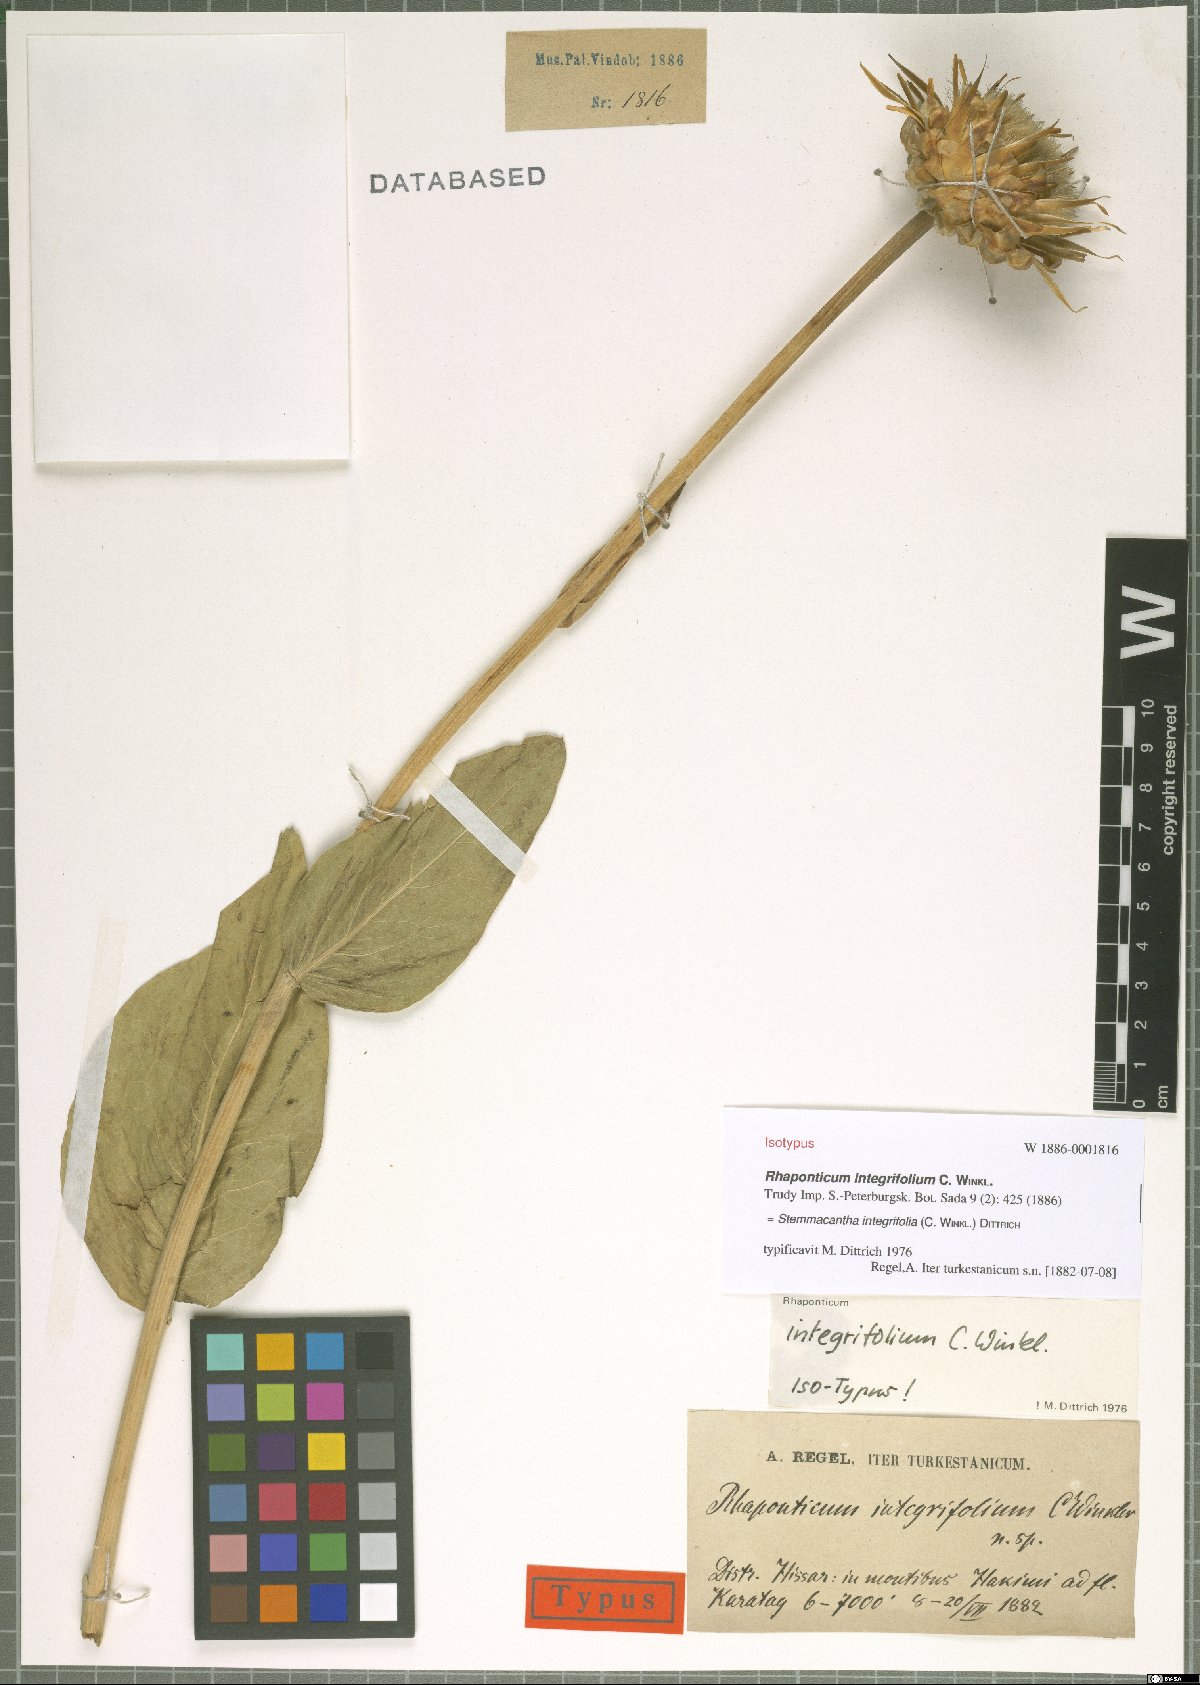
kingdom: Plantae
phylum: Tracheophyta
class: Magnoliopsida
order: Asterales
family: Asteraceae
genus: Leuzea
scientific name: Leuzea integrifolia
